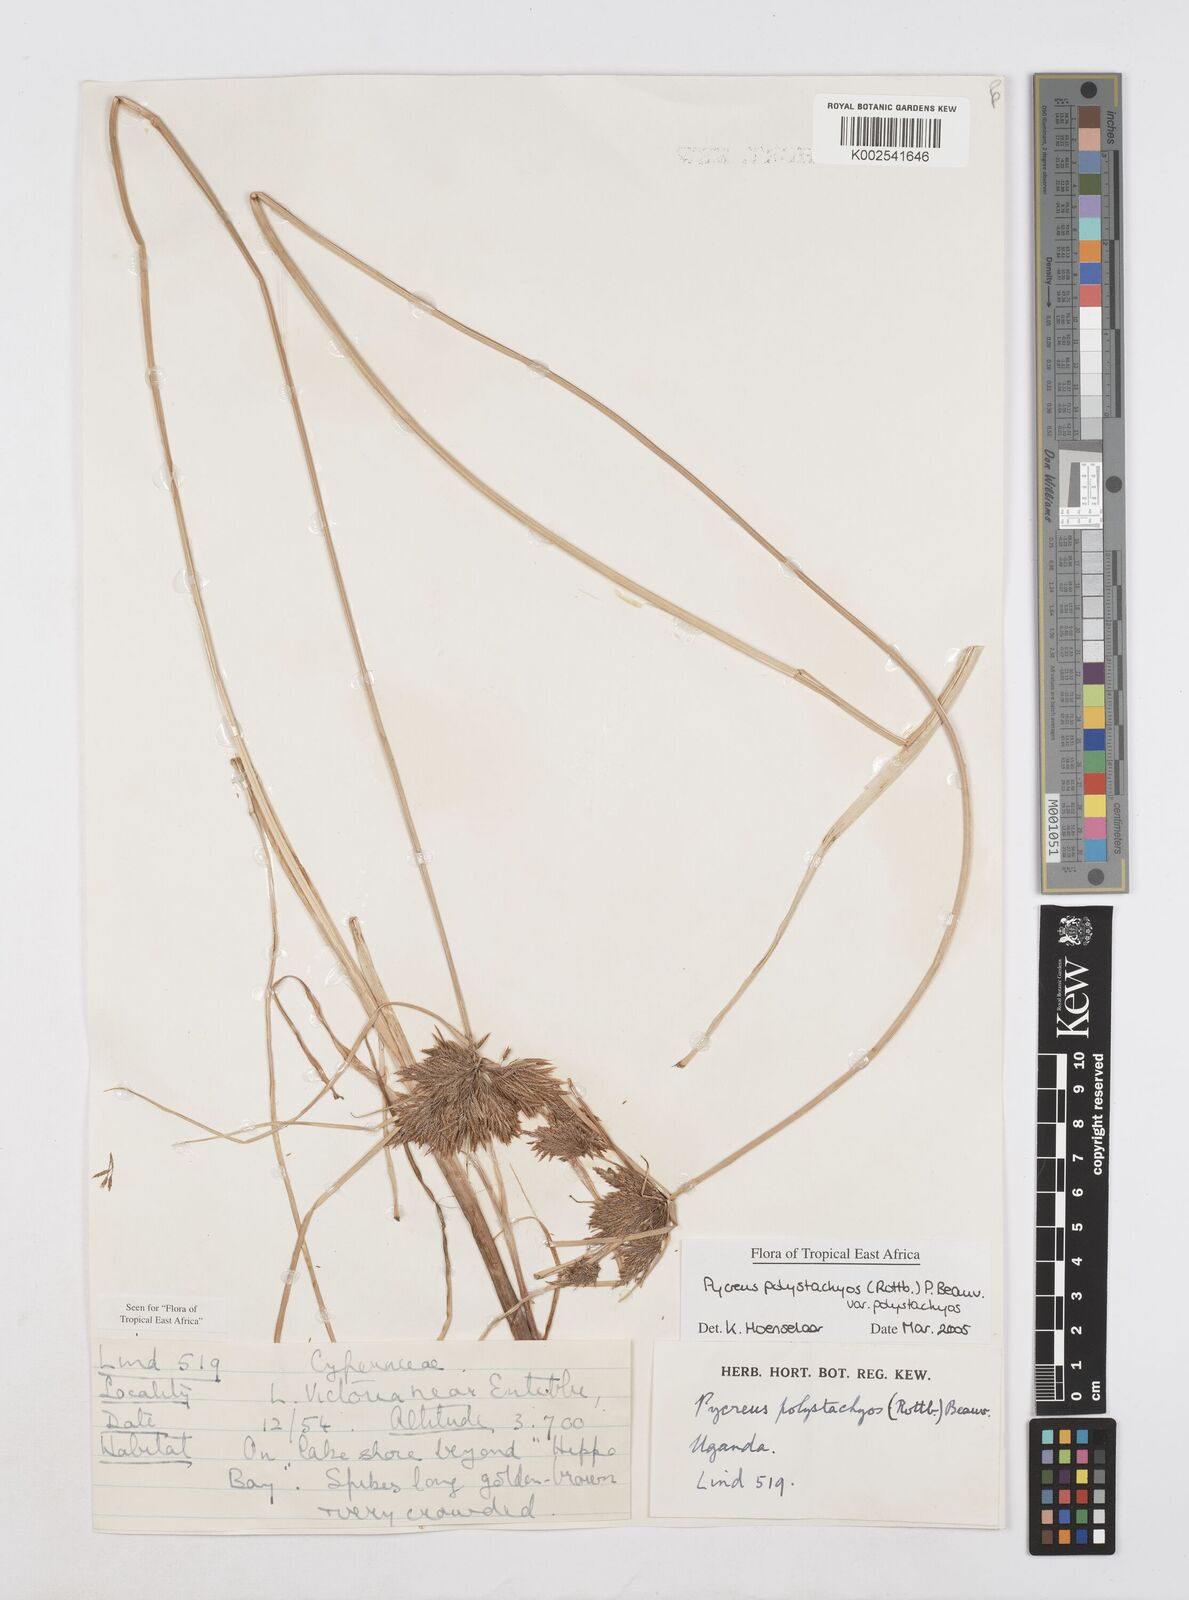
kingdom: Plantae
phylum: Tracheophyta
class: Liliopsida
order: Poales
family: Cyperaceae
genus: Cyperus
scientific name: Cyperus polystachyos
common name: Bunchy flat sedge
